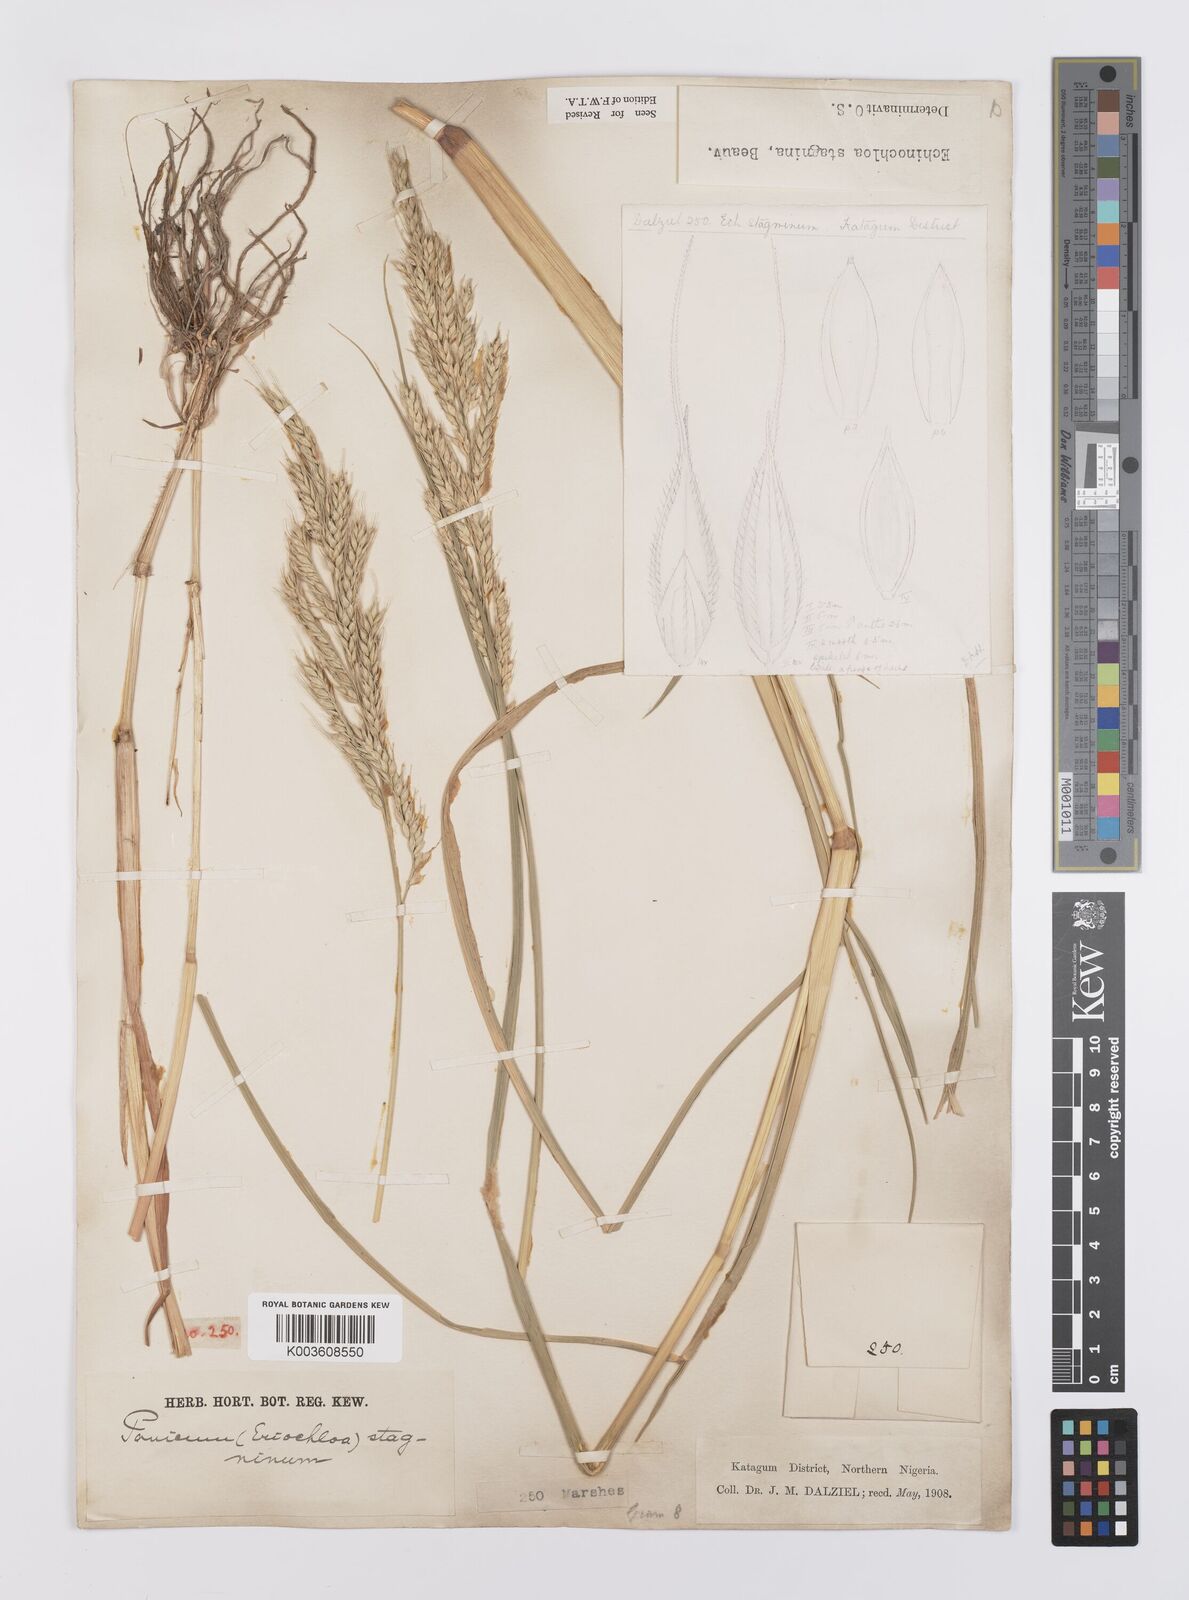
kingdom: Plantae
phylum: Tracheophyta
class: Liliopsida
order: Poales
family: Poaceae
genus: Echinochloa
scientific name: Echinochloa stagnina
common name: Burgu grass
